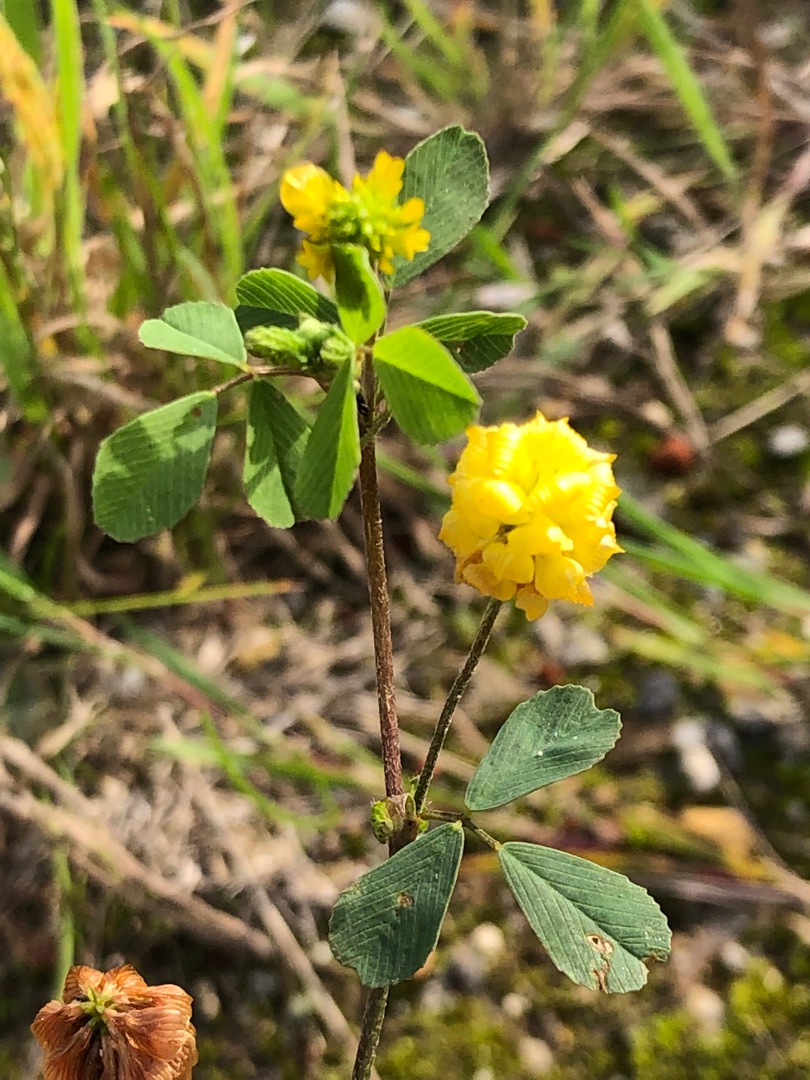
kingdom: Plantae
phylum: Tracheophyta
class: Magnoliopsida
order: Fabales
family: Fabaceae
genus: Trifolium
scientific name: Trifolium campestre
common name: Gul kløver
